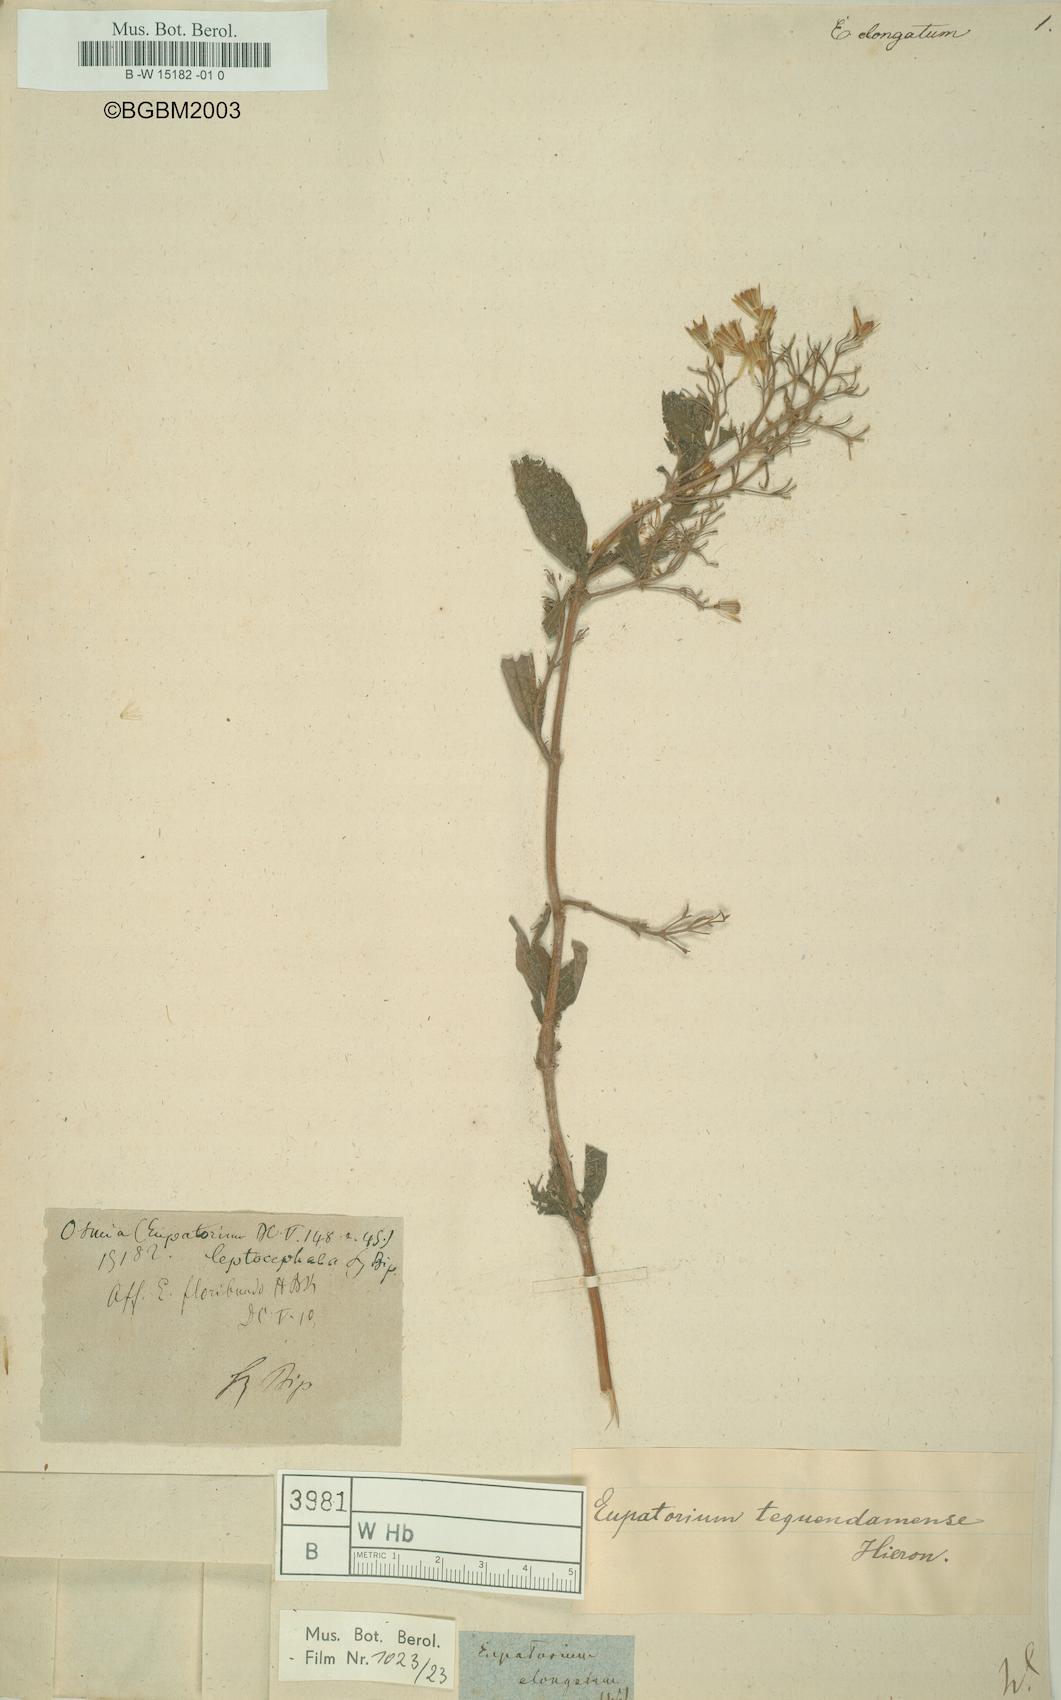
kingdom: Plantae
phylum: Tracheophyta
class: Magnoliopsida
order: Asterales
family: Asteraceae
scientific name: Asteraceae
